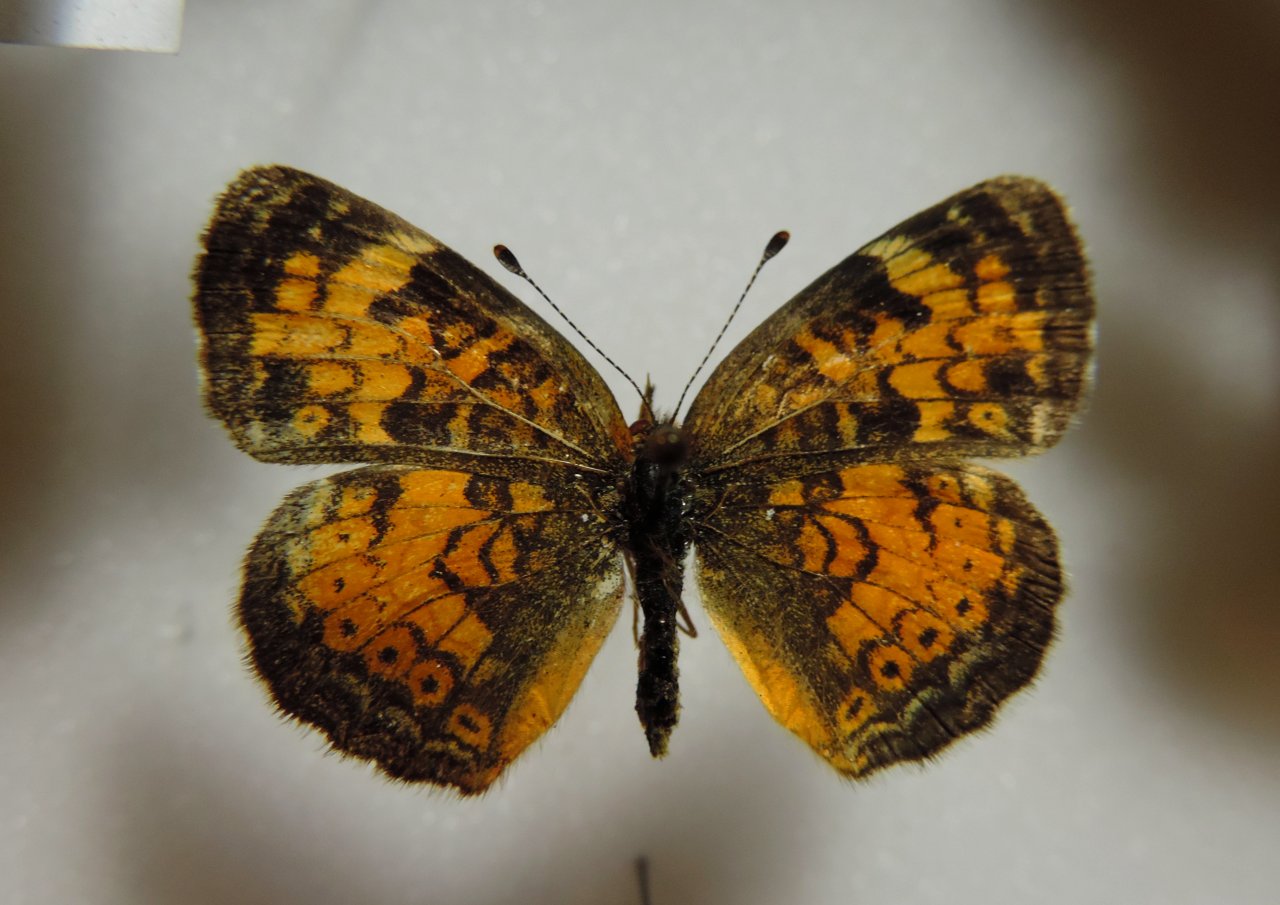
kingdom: Animalia
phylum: Arthropoda
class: Insecta
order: Lepidoptera
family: Nymphalidae
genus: Phyciodes
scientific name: Phyciodes tharos
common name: Northern Crescent
